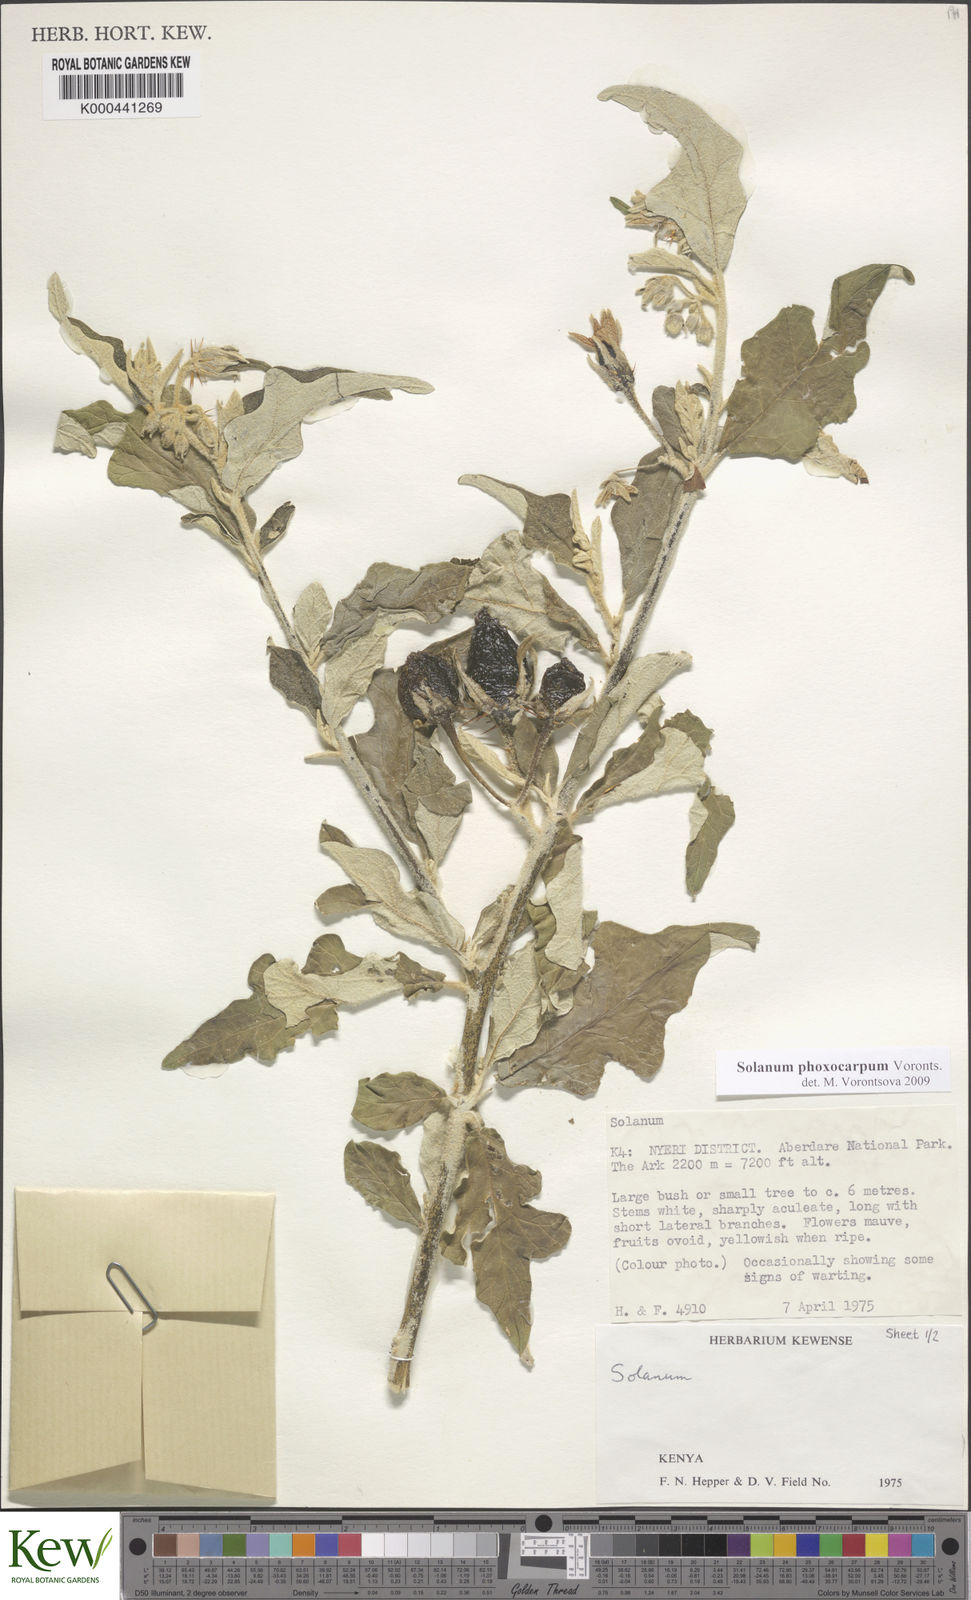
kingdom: Plantae
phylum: Tracheophyta
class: Magnoliopsida
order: Solanales
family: Solanaceae
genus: Solanum
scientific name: Solanum phoxocarpum
